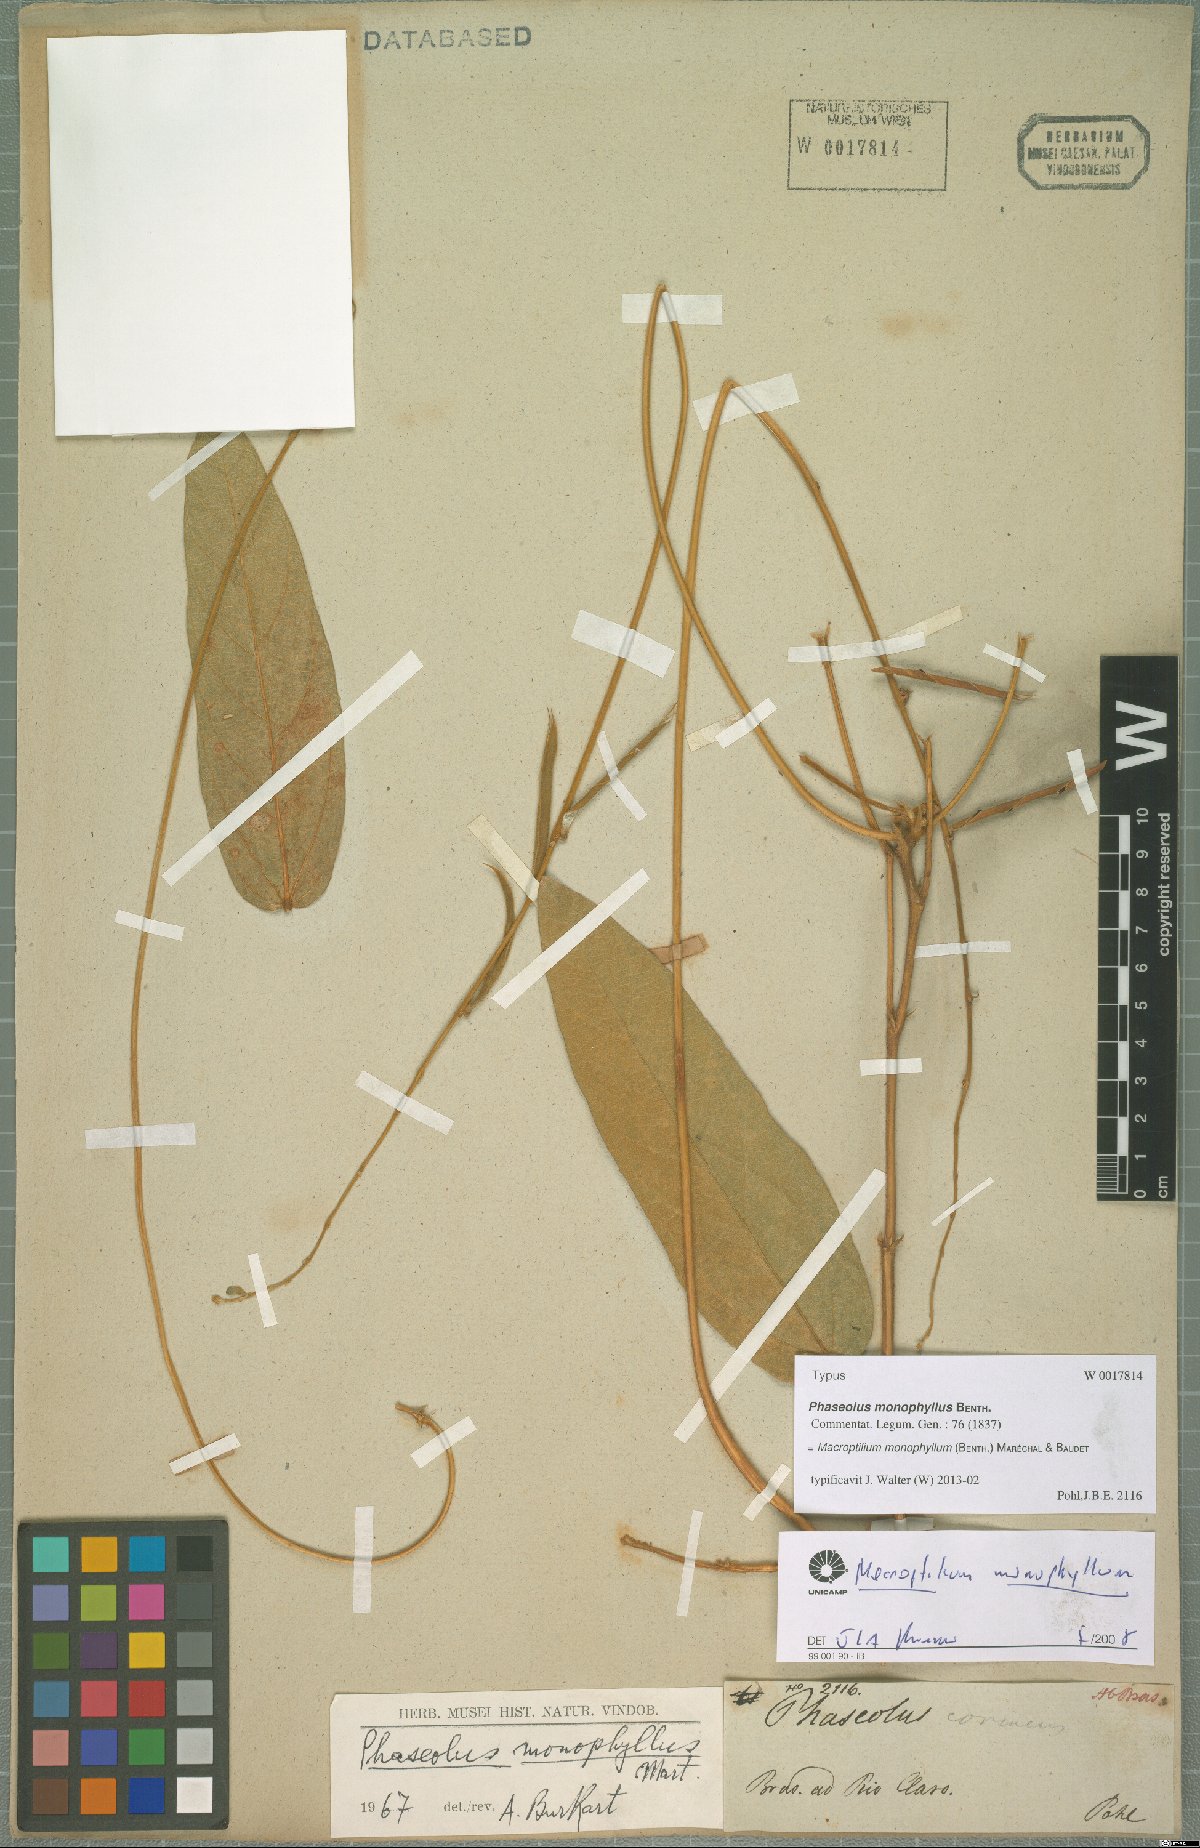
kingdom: Plantae
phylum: Tracheophyta
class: Magnoliopsida
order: Fabales
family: Fabaceae
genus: Macroptilium
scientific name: Macroptilium monophyllum
